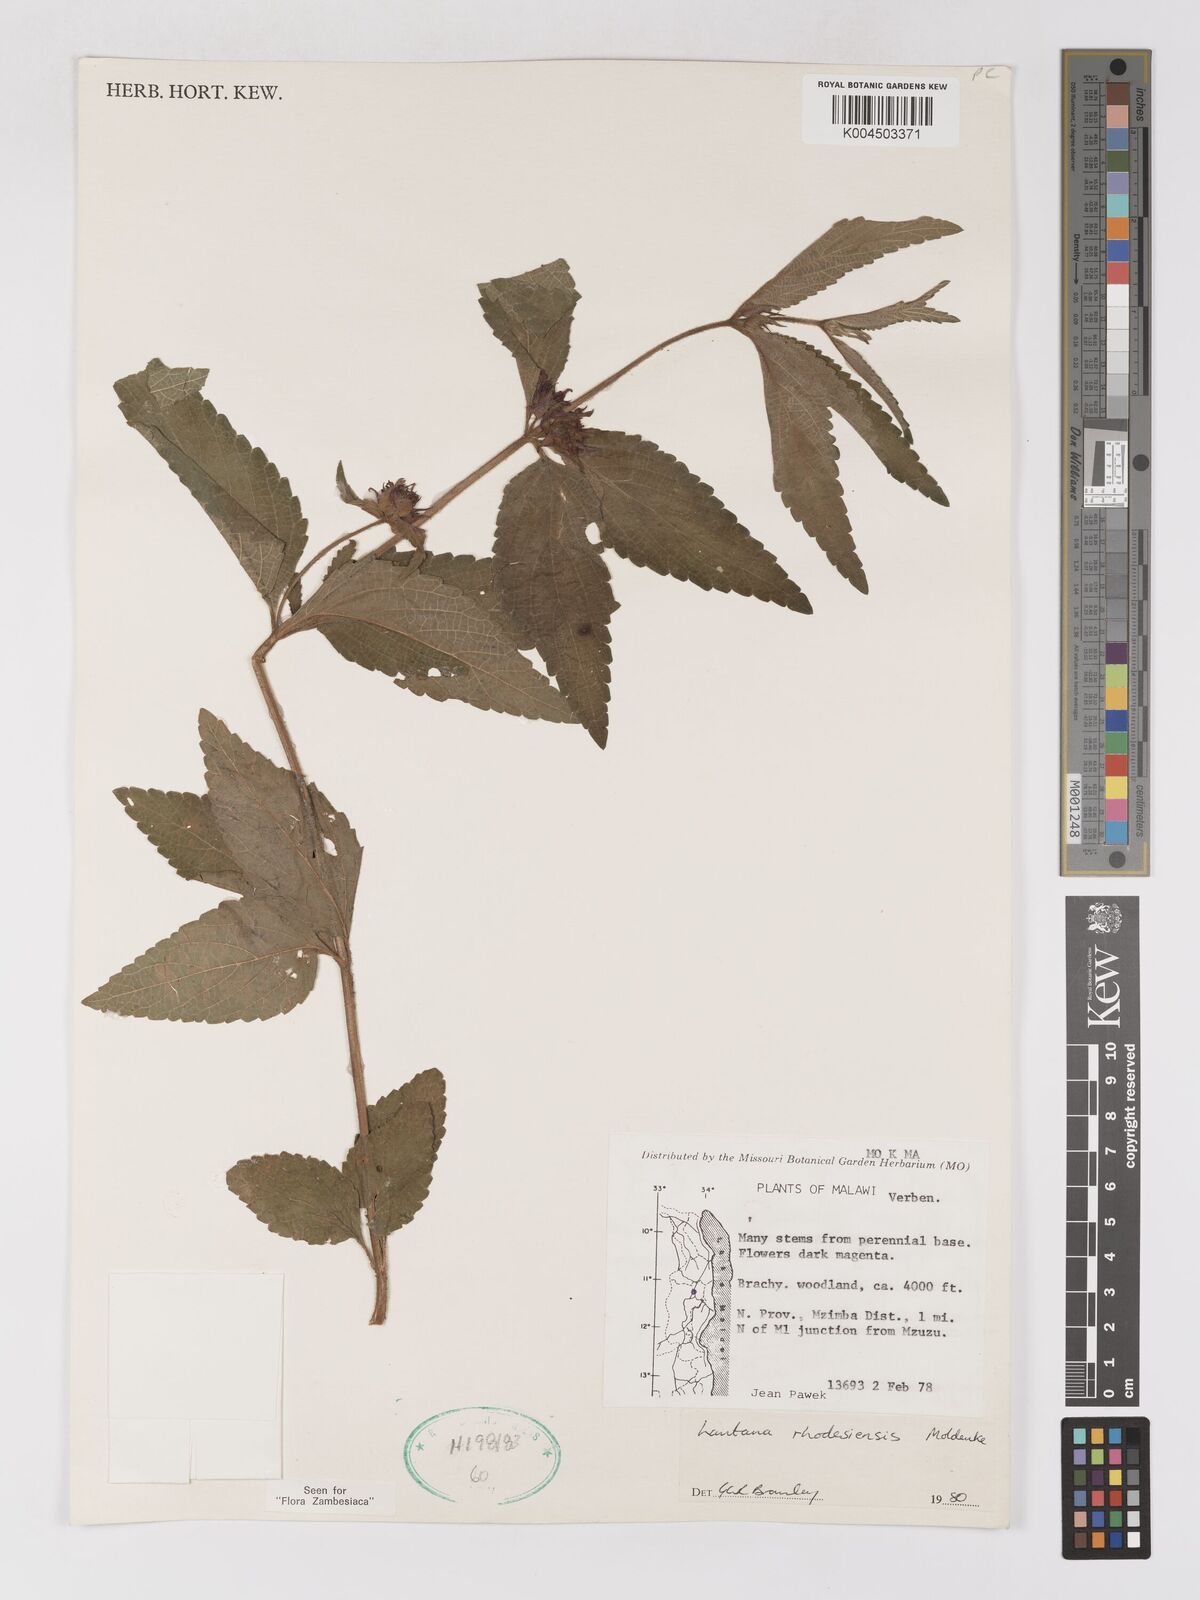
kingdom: Plantae
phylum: Tracheophyta
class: Magnoliopsida
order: Lamiales
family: Verbenaceae
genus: Lantana
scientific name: Lantana ukambensis
